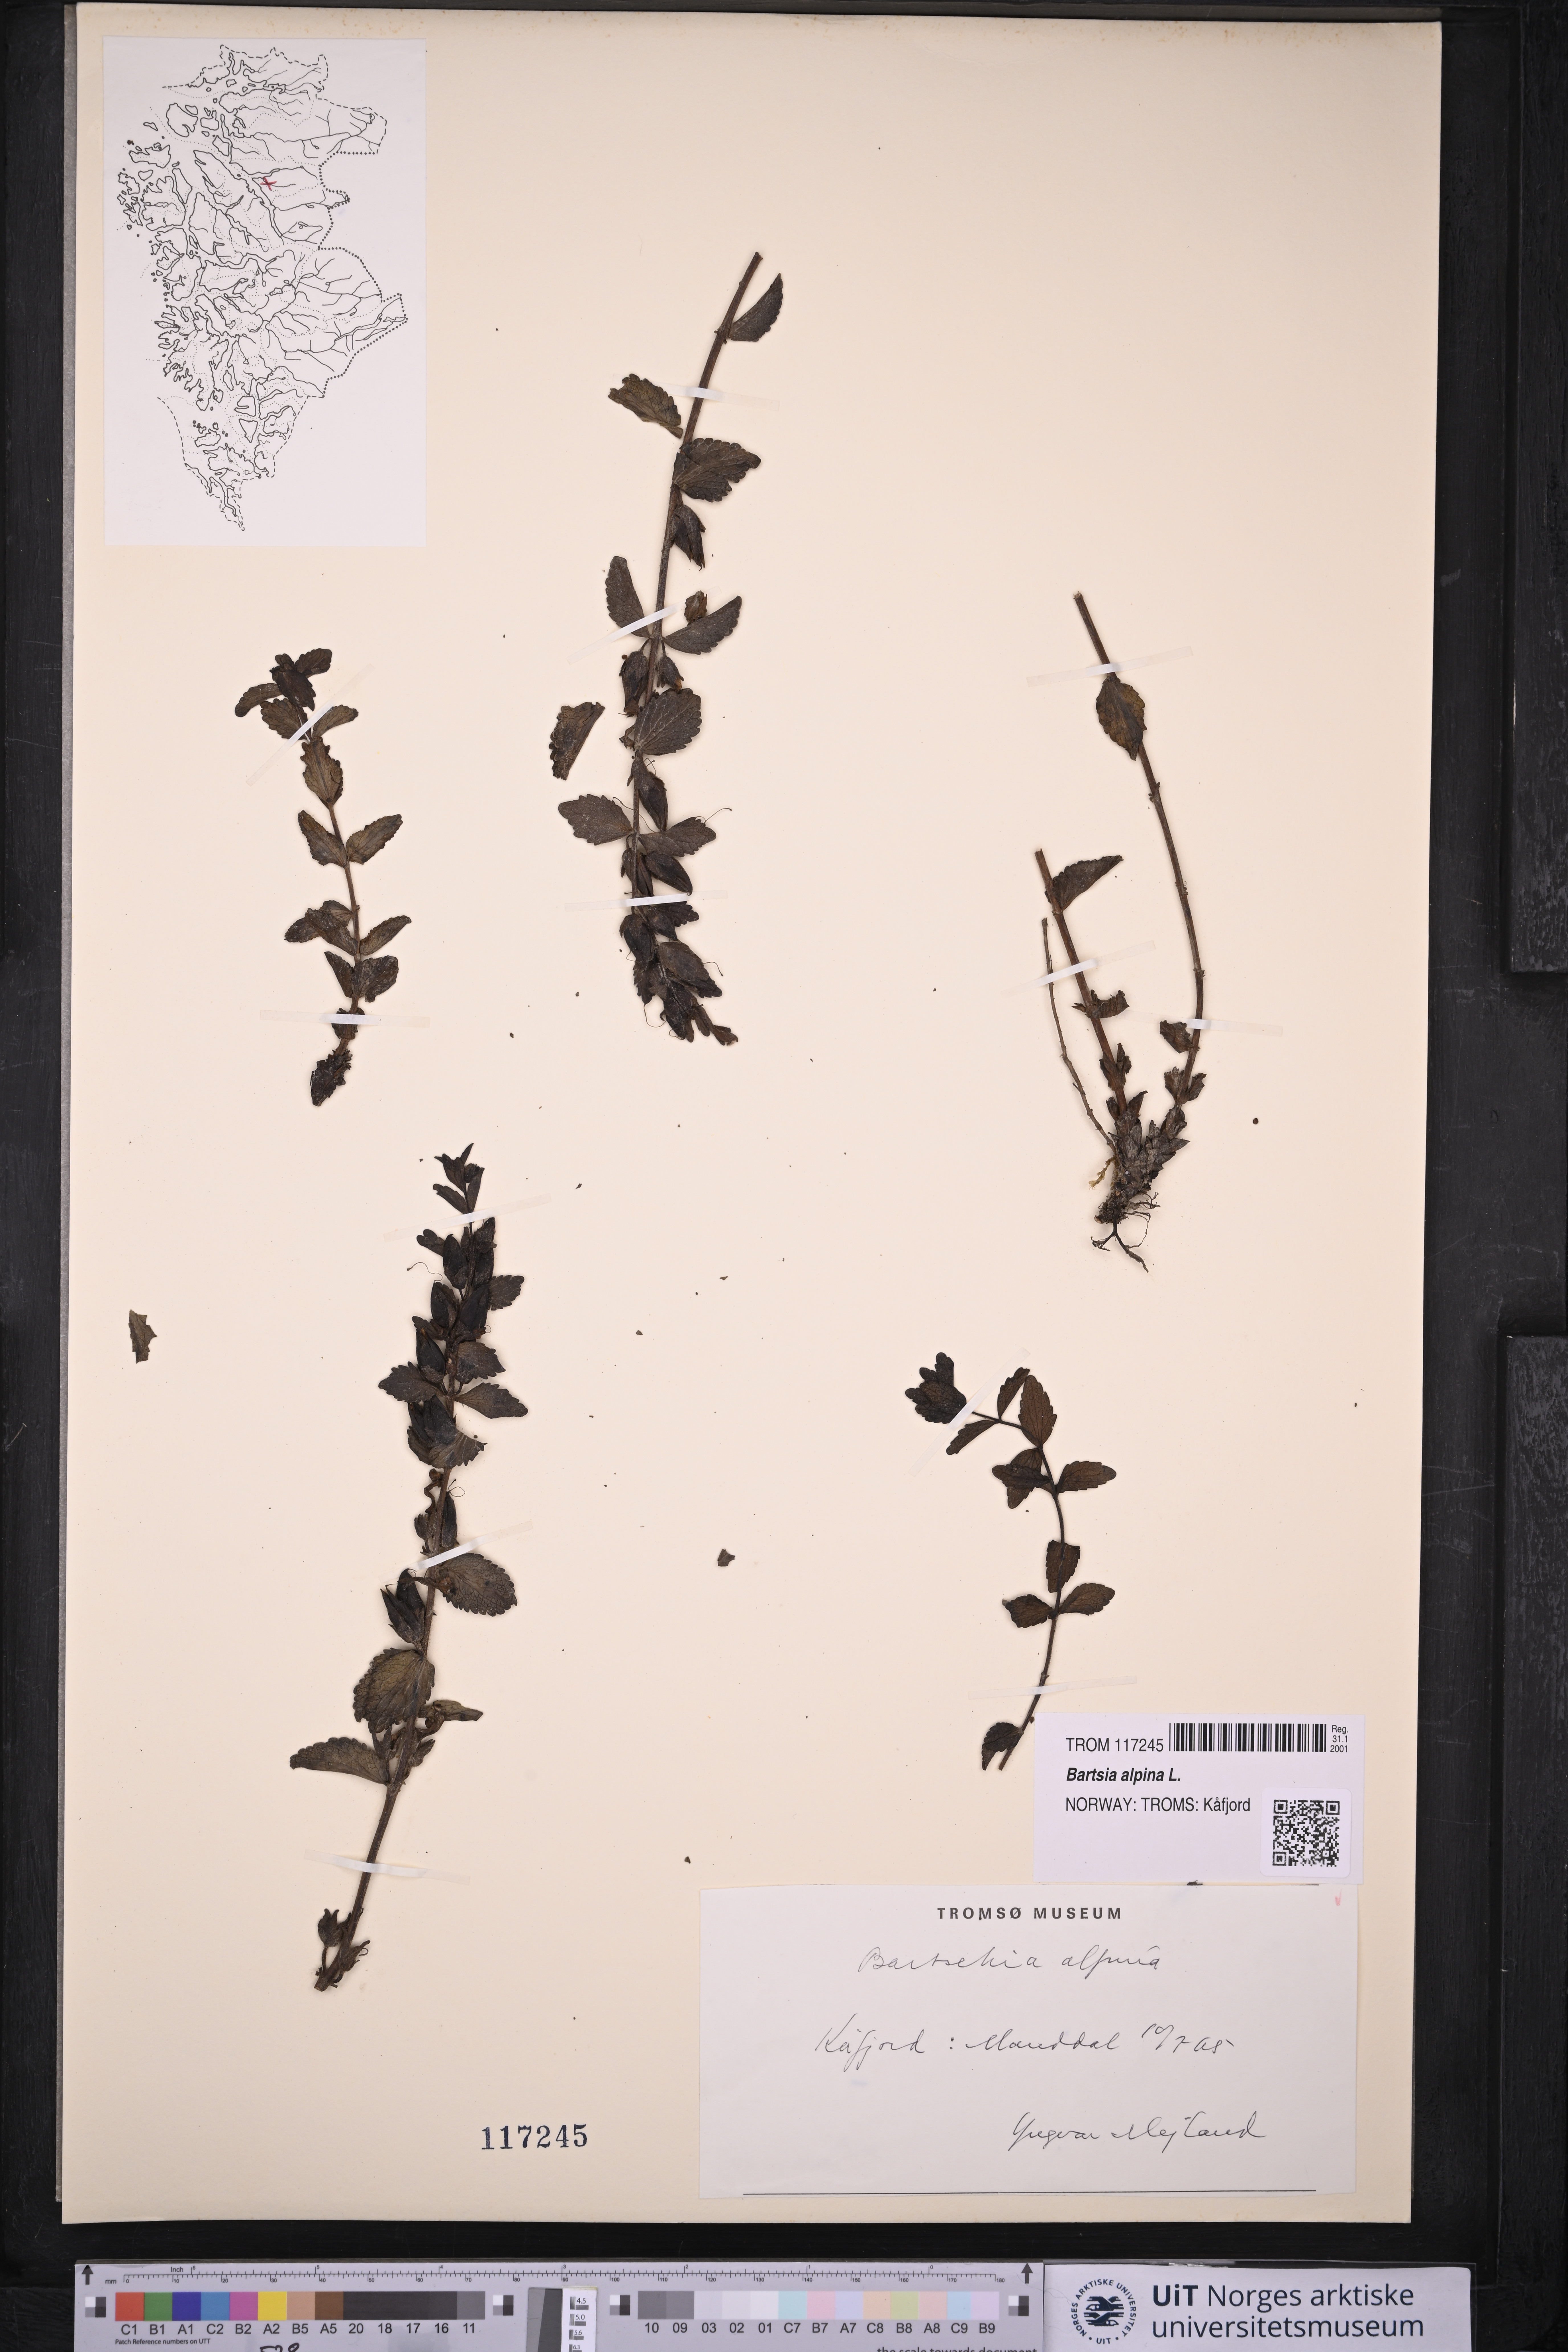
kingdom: Plantae
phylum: Tracheophyta
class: Magnoliopsida
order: Lamiales
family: Orobanchaceae
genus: Bartsia
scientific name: Bartsia alpina
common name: Alpine bartsia
